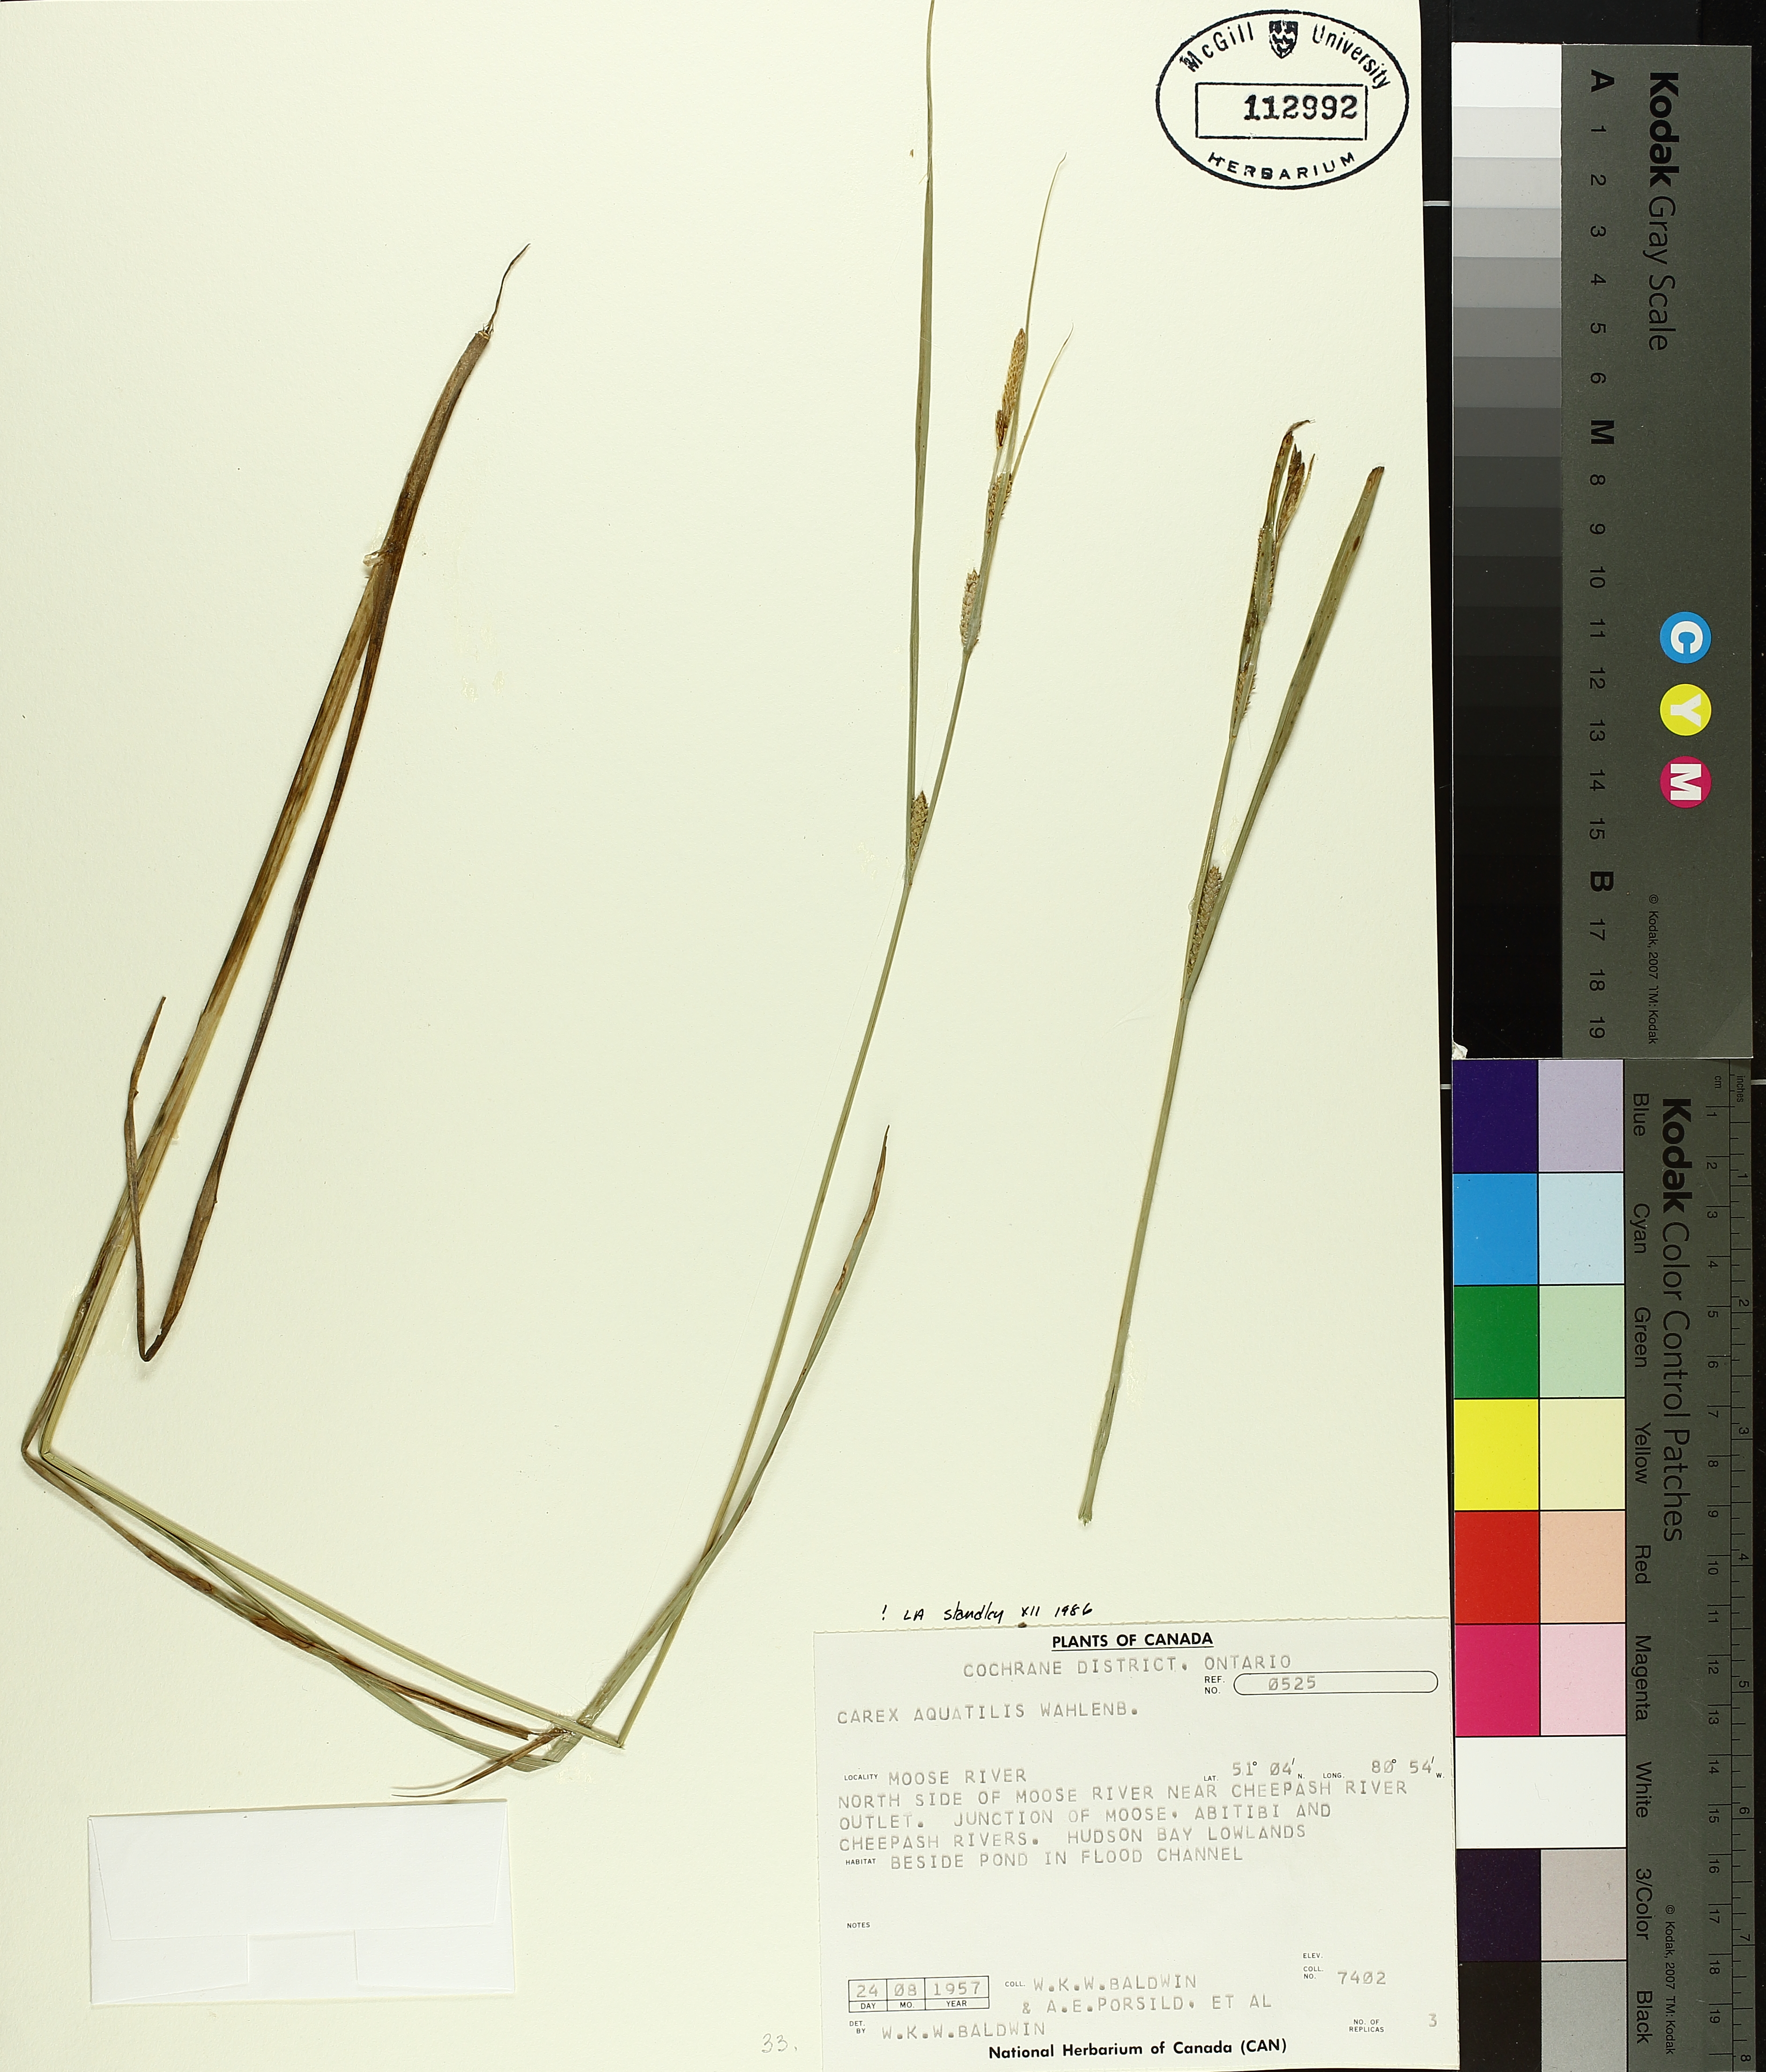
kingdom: Plantae
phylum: Tracheophyta
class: Liliopsida
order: Poales
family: Cyperaceae
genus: Carex
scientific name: Carex aquatilis
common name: Water sedge
